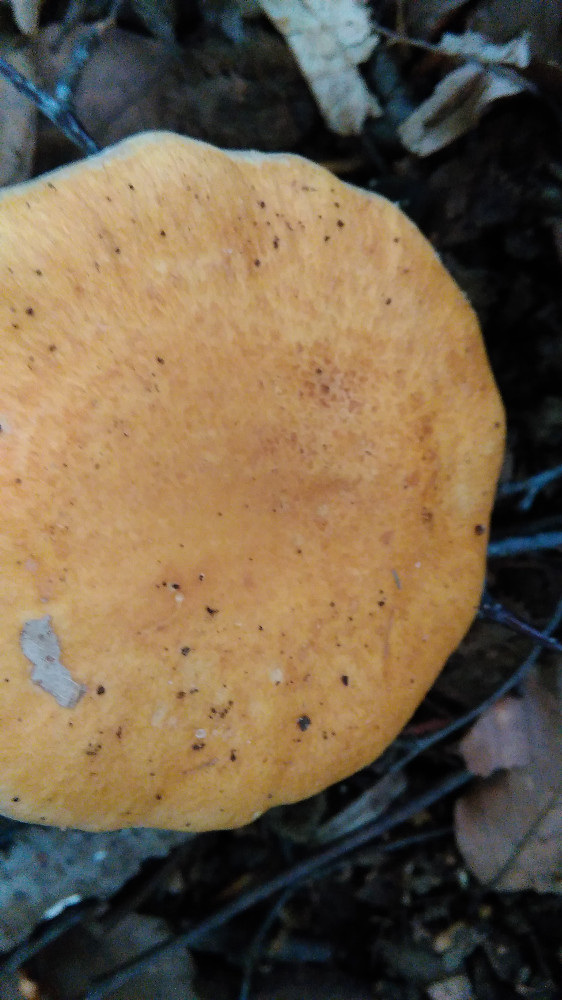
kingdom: Fungi
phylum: Basidiomycota
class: Agaricomycetes
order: Agaricales
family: Cortinariaceae
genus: Phlegmacium
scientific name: Phlegmacium triumphans
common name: gulbæltet slørhat
